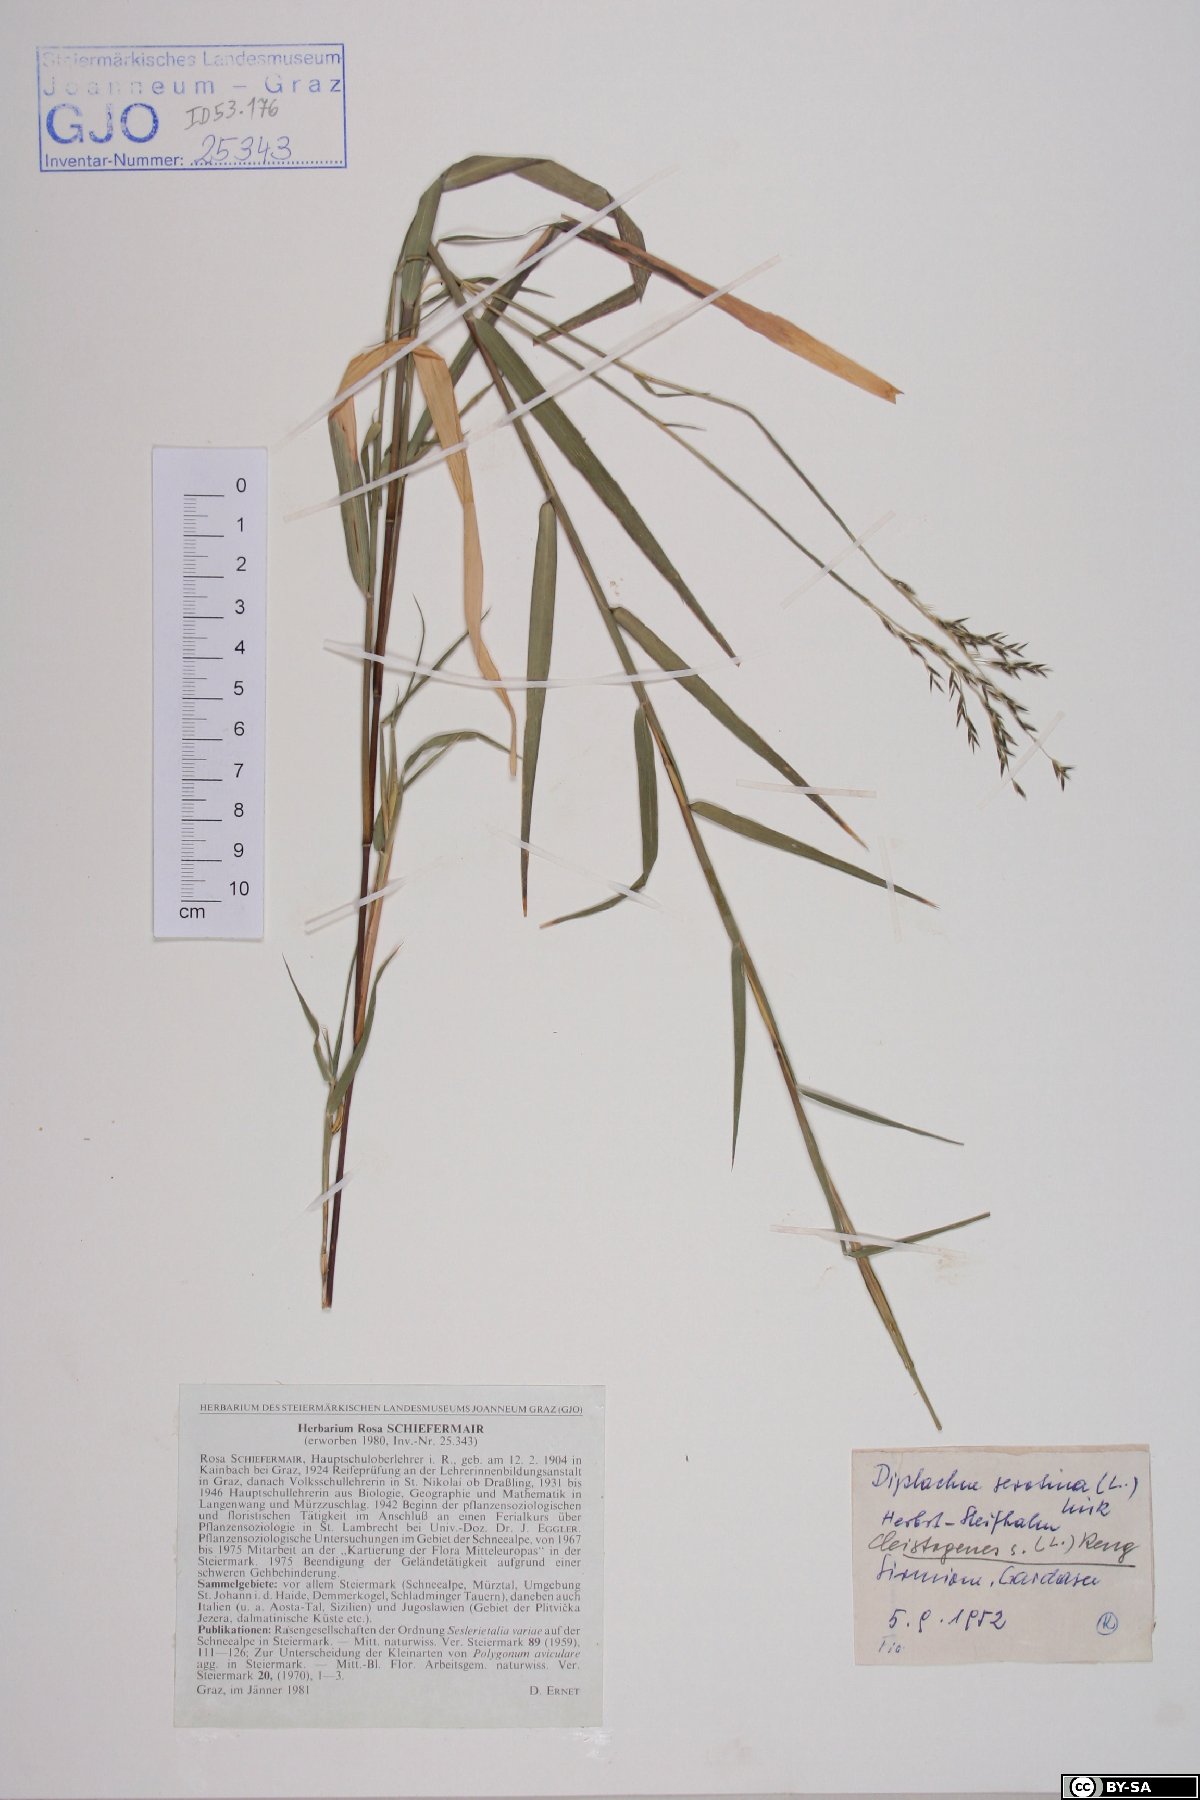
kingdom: Plantae
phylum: Tracheophyta
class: Liliopsida
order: Poales
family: Poaceae
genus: Cleistogenes
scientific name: Cleistogenes serotina
